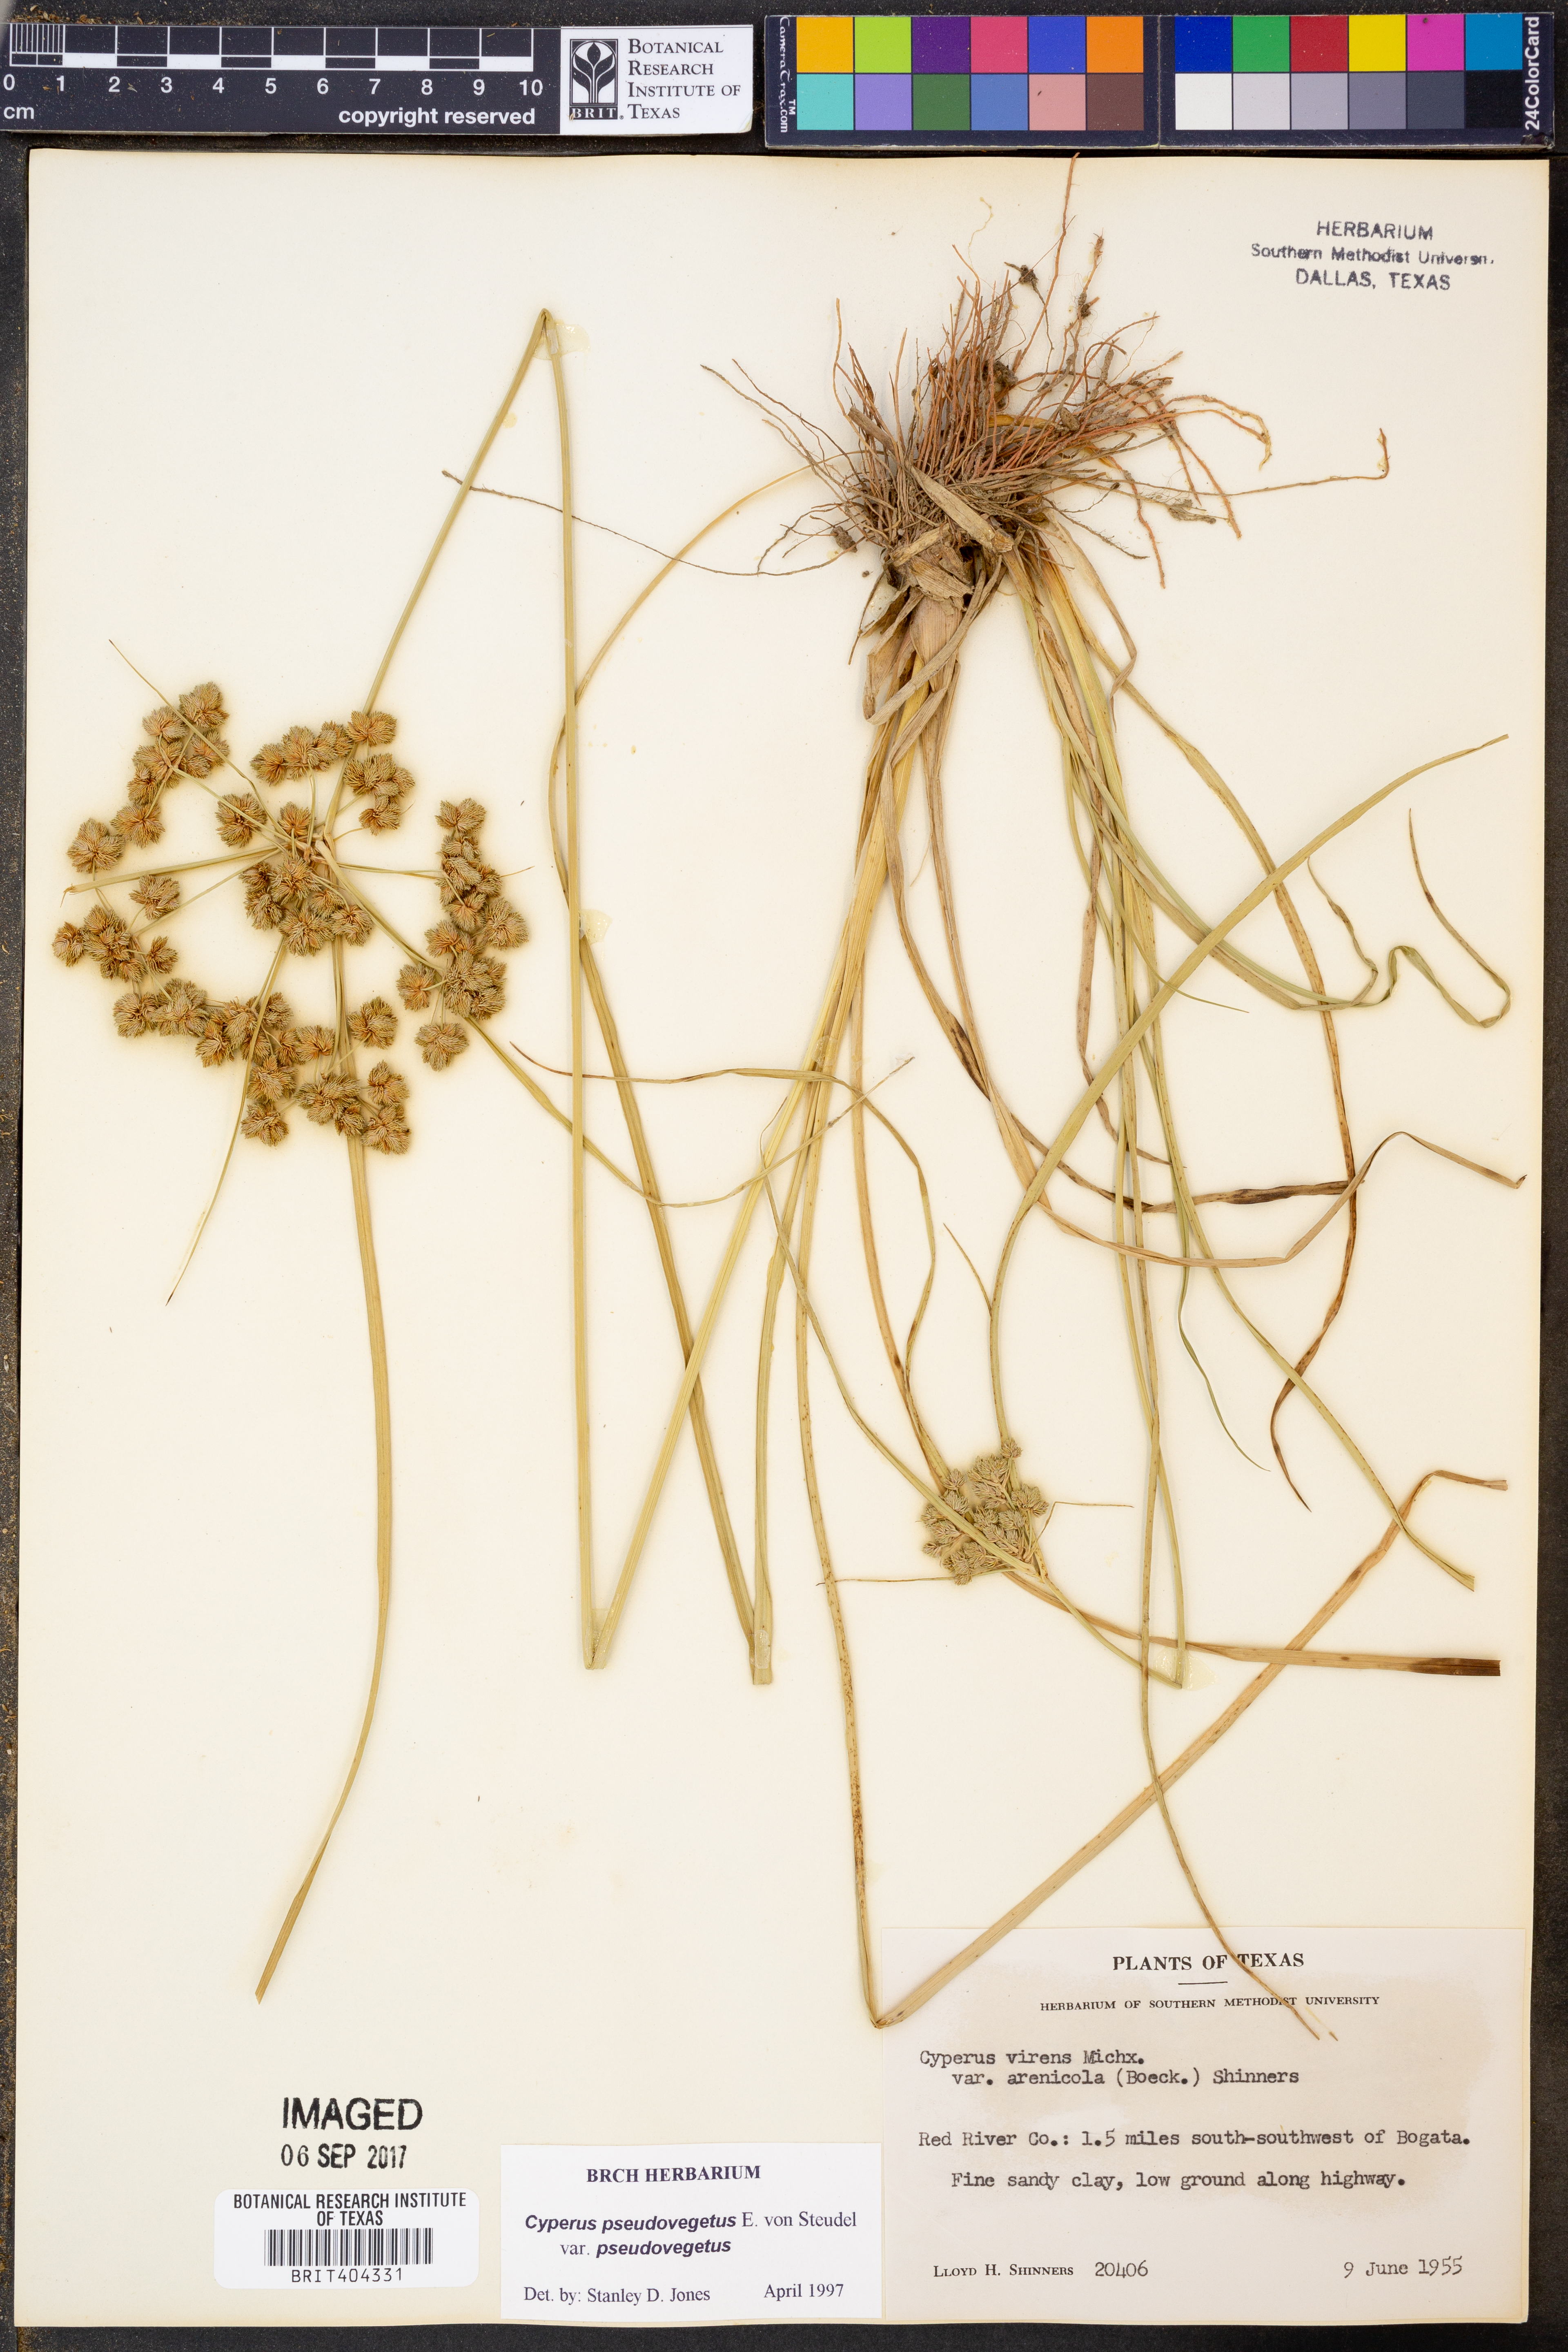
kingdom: Plantae
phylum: Tracheophyta
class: Liliopsida
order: Poales
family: Cyperaceae
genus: Cyperus
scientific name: Cyperus pseudovegetus
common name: Marsh flat sedge
